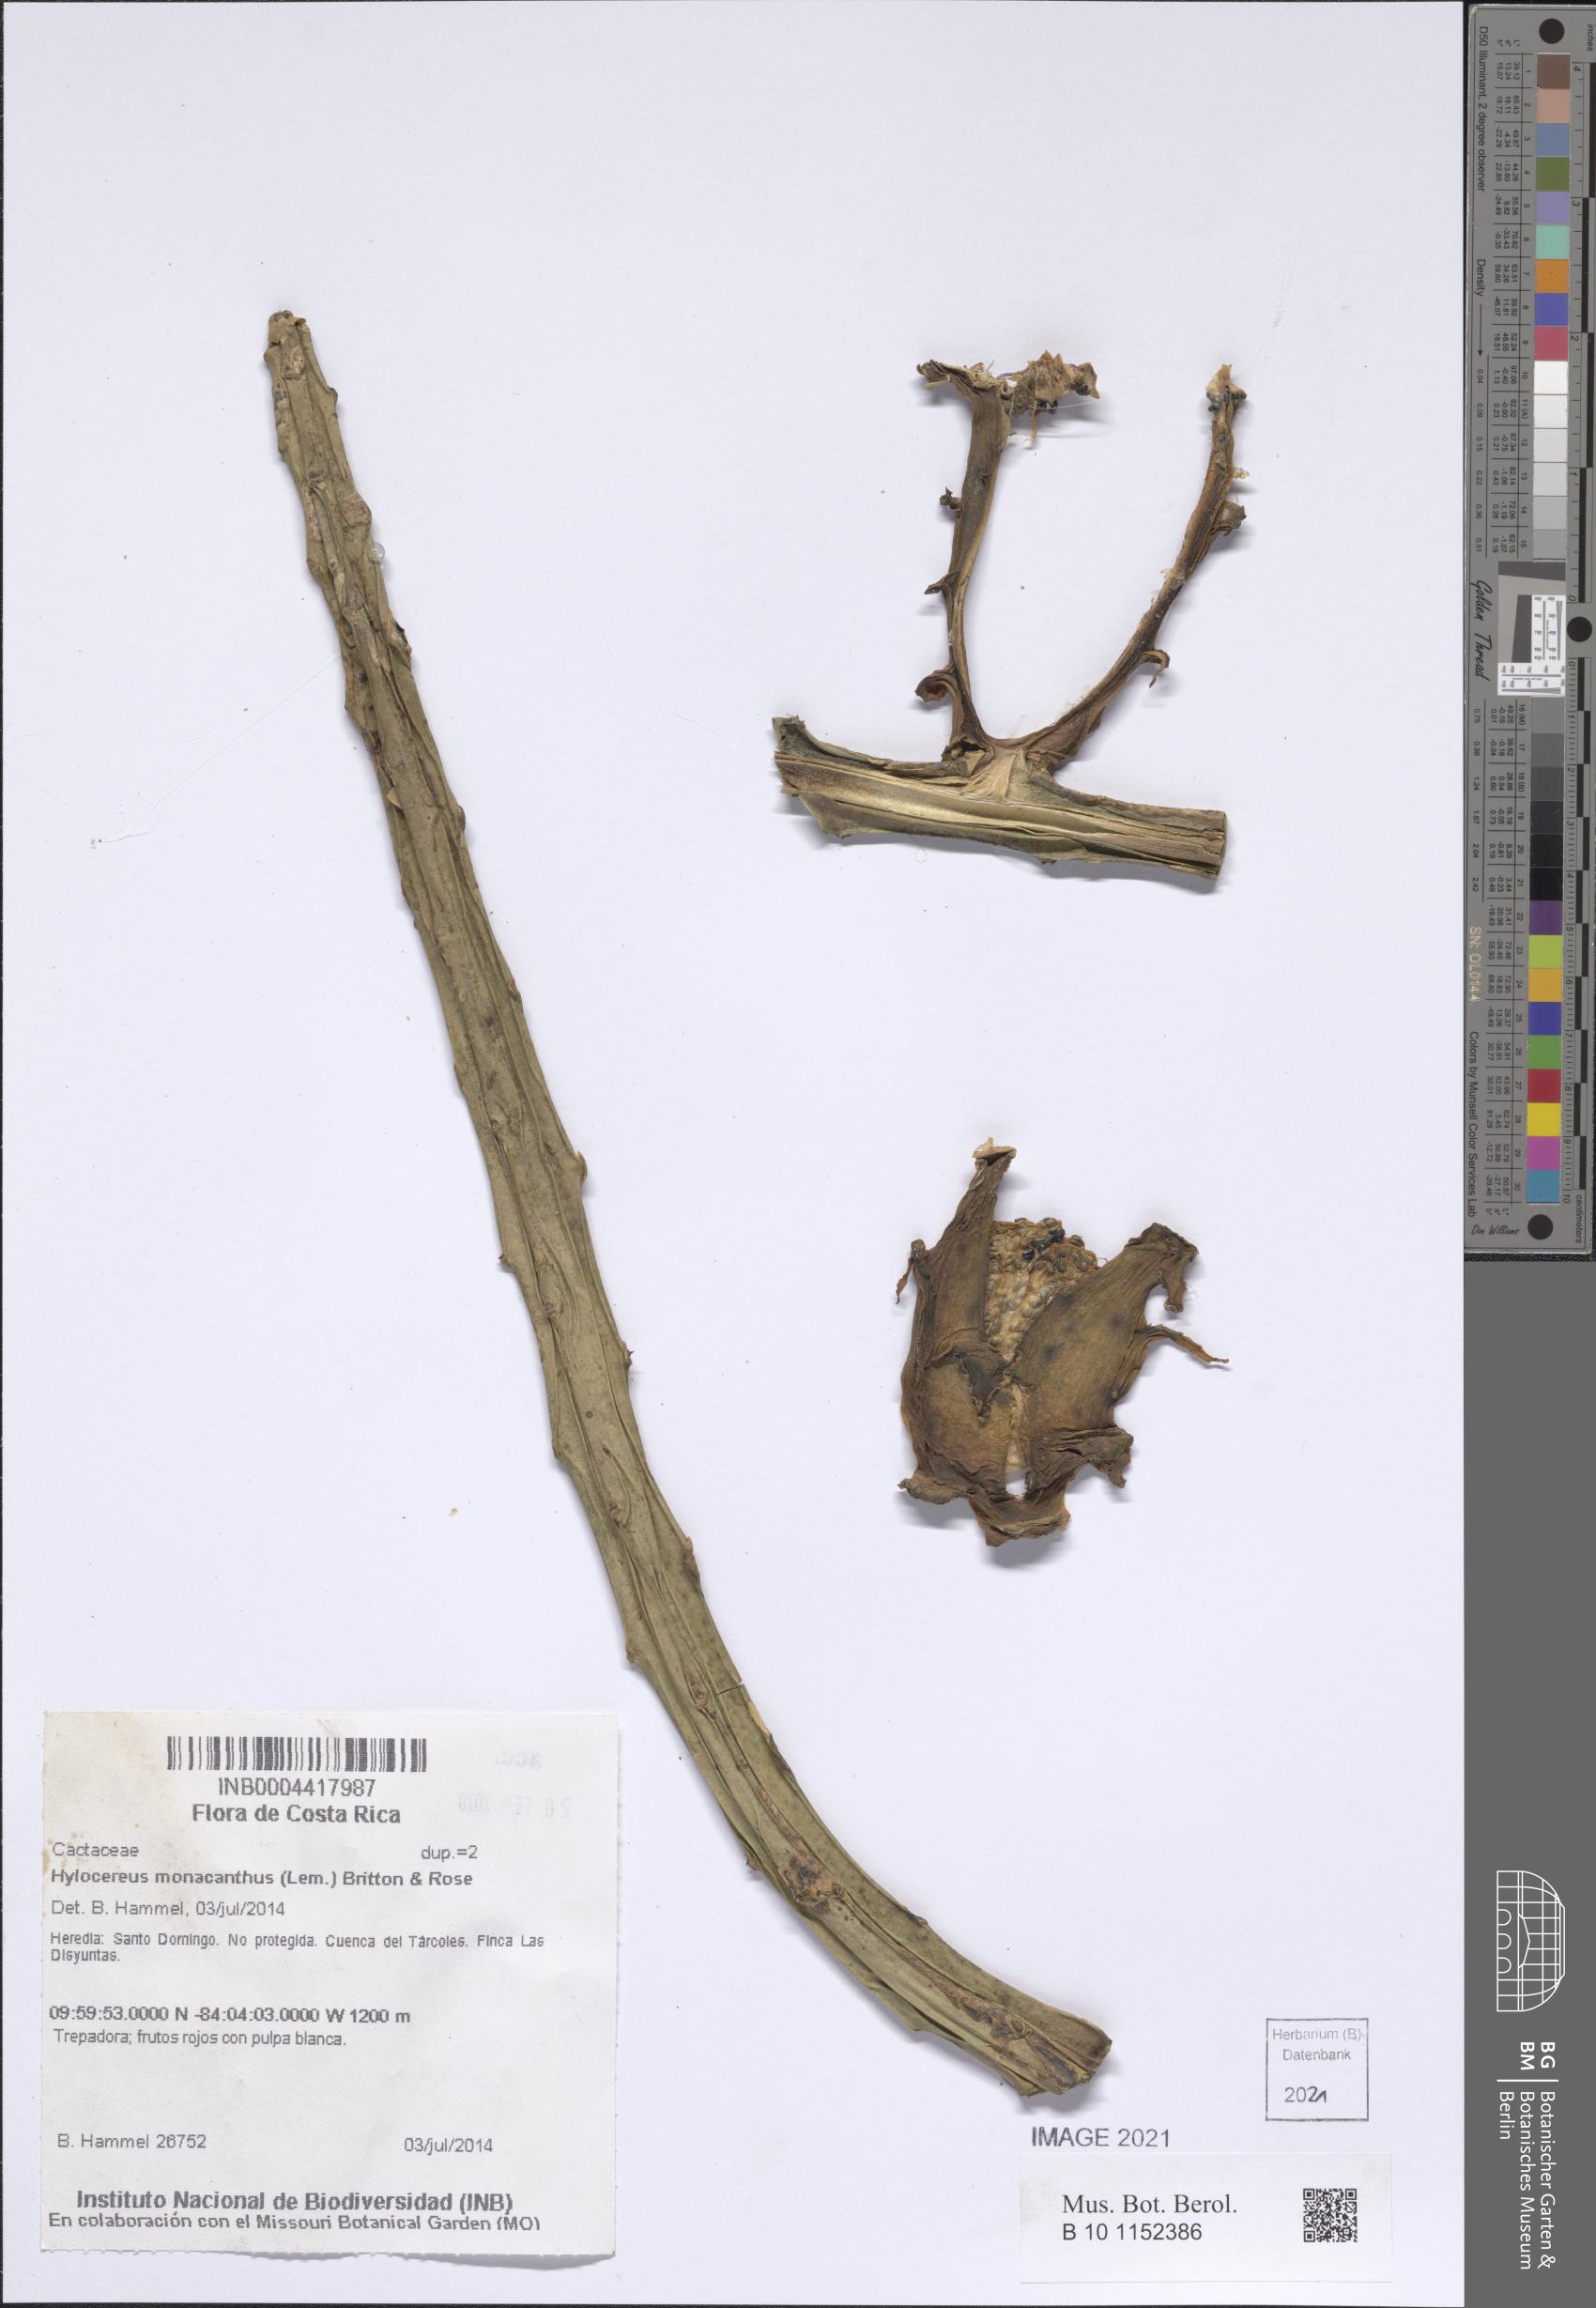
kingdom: Plantae
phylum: Tracheophyta
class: Magnoliopsida
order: Caryophyllales
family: Cactaceae
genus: Selenicereus
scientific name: Selenicereus monacanthus
